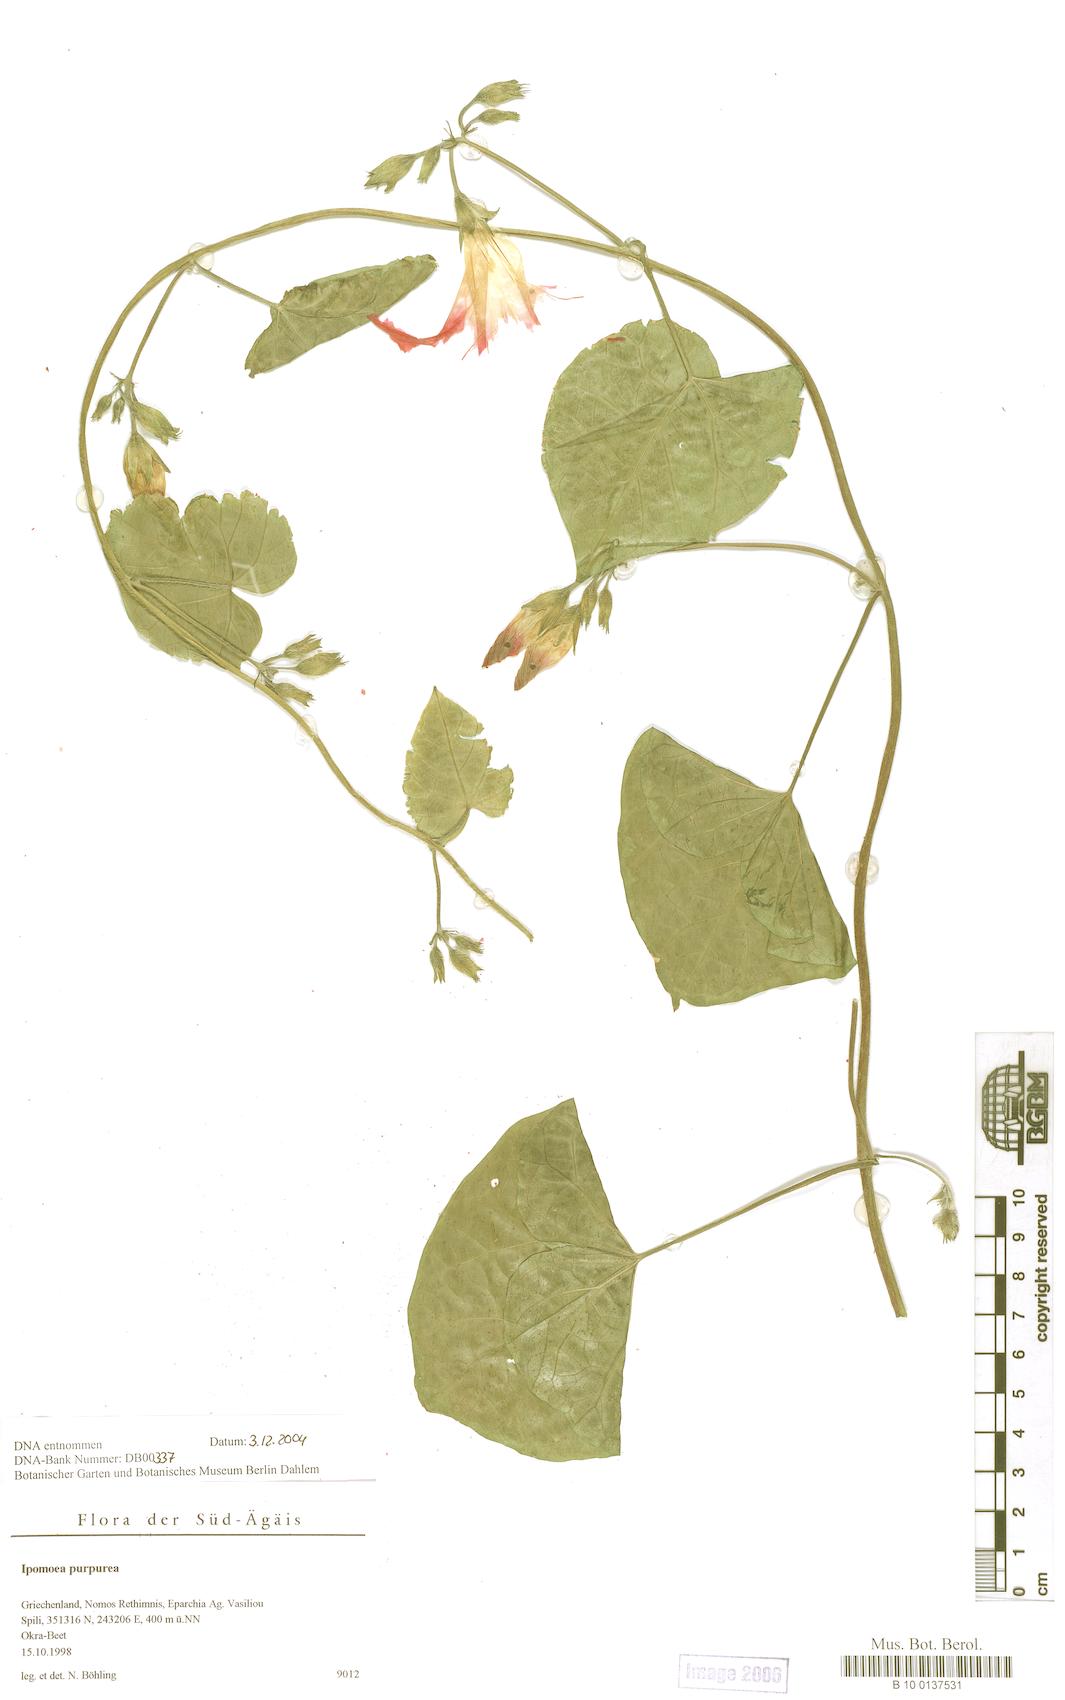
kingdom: Plantae
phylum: Tracheophyta
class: Magnoliopsida
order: Solanales
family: Convolvulaceae
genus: Ipomoea
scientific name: Ipomoea purpurea
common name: Common morning-glory
